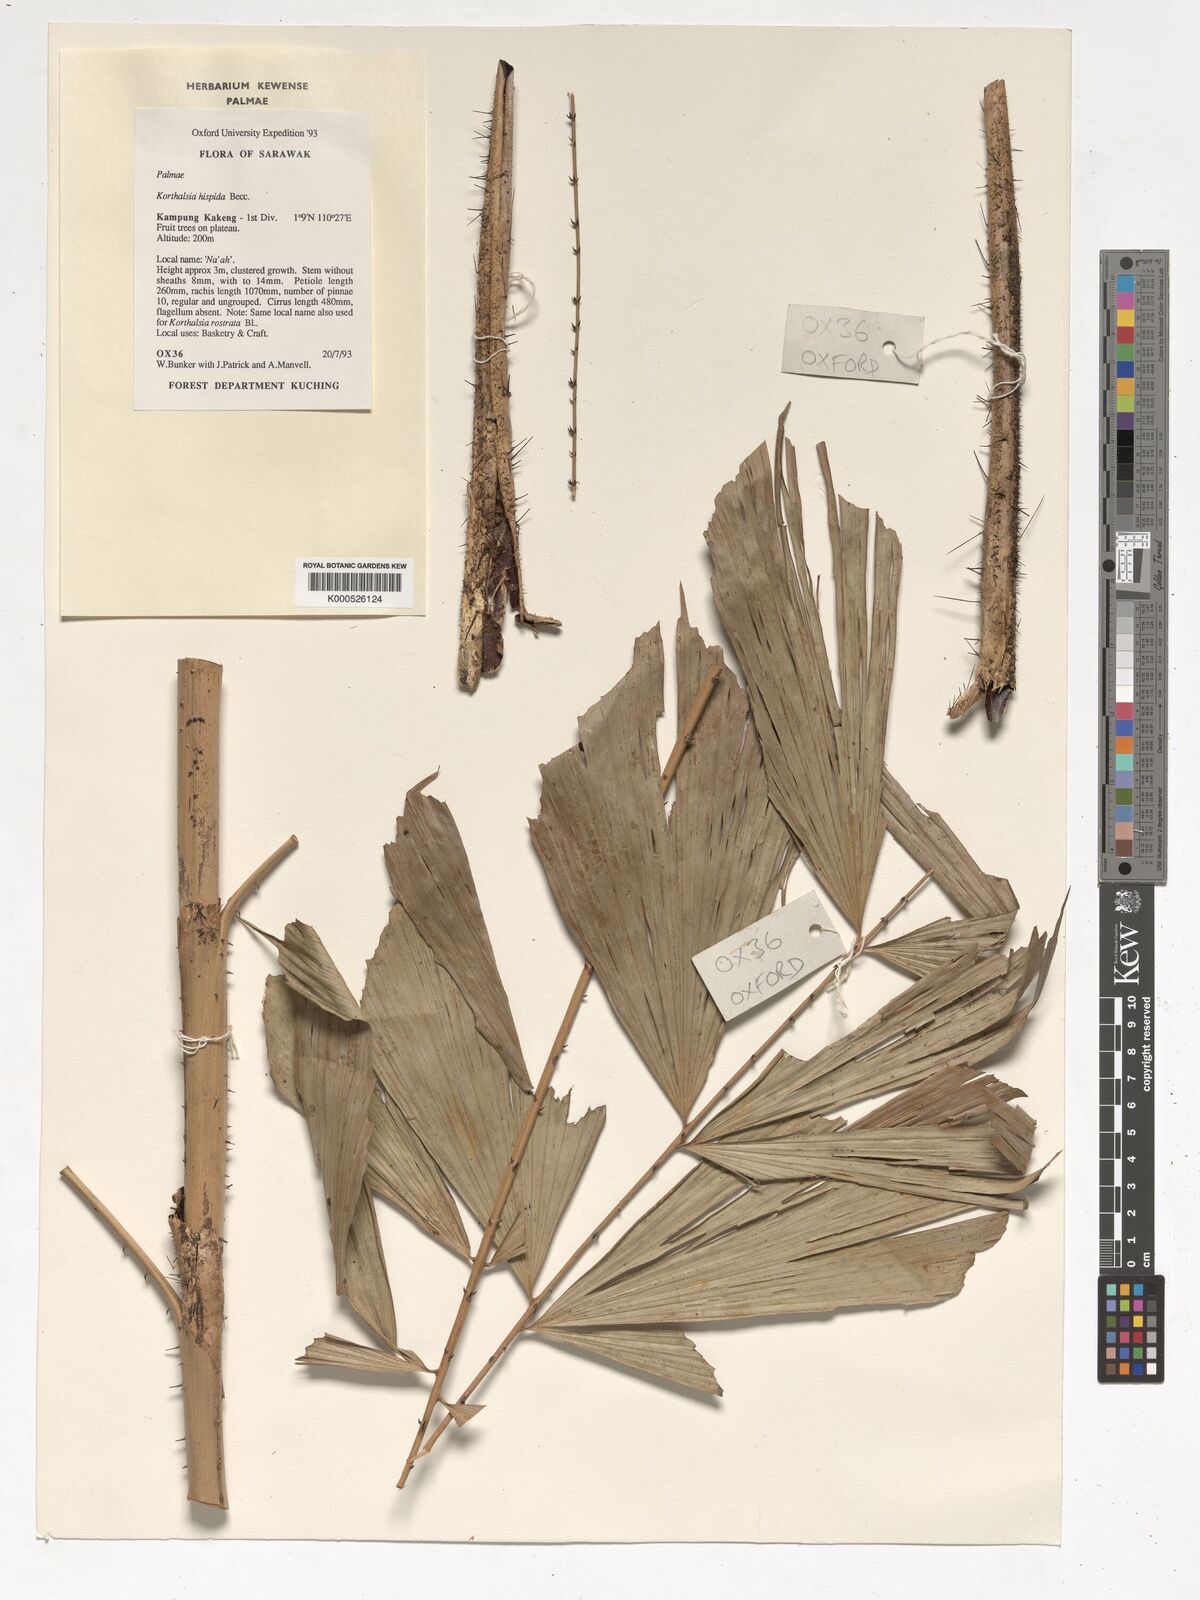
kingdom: Plantae
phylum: Tracheophyta
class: Liliopsida
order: Arecales
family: Arecaceae
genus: Korthalsia
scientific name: Korthalsia hispida
